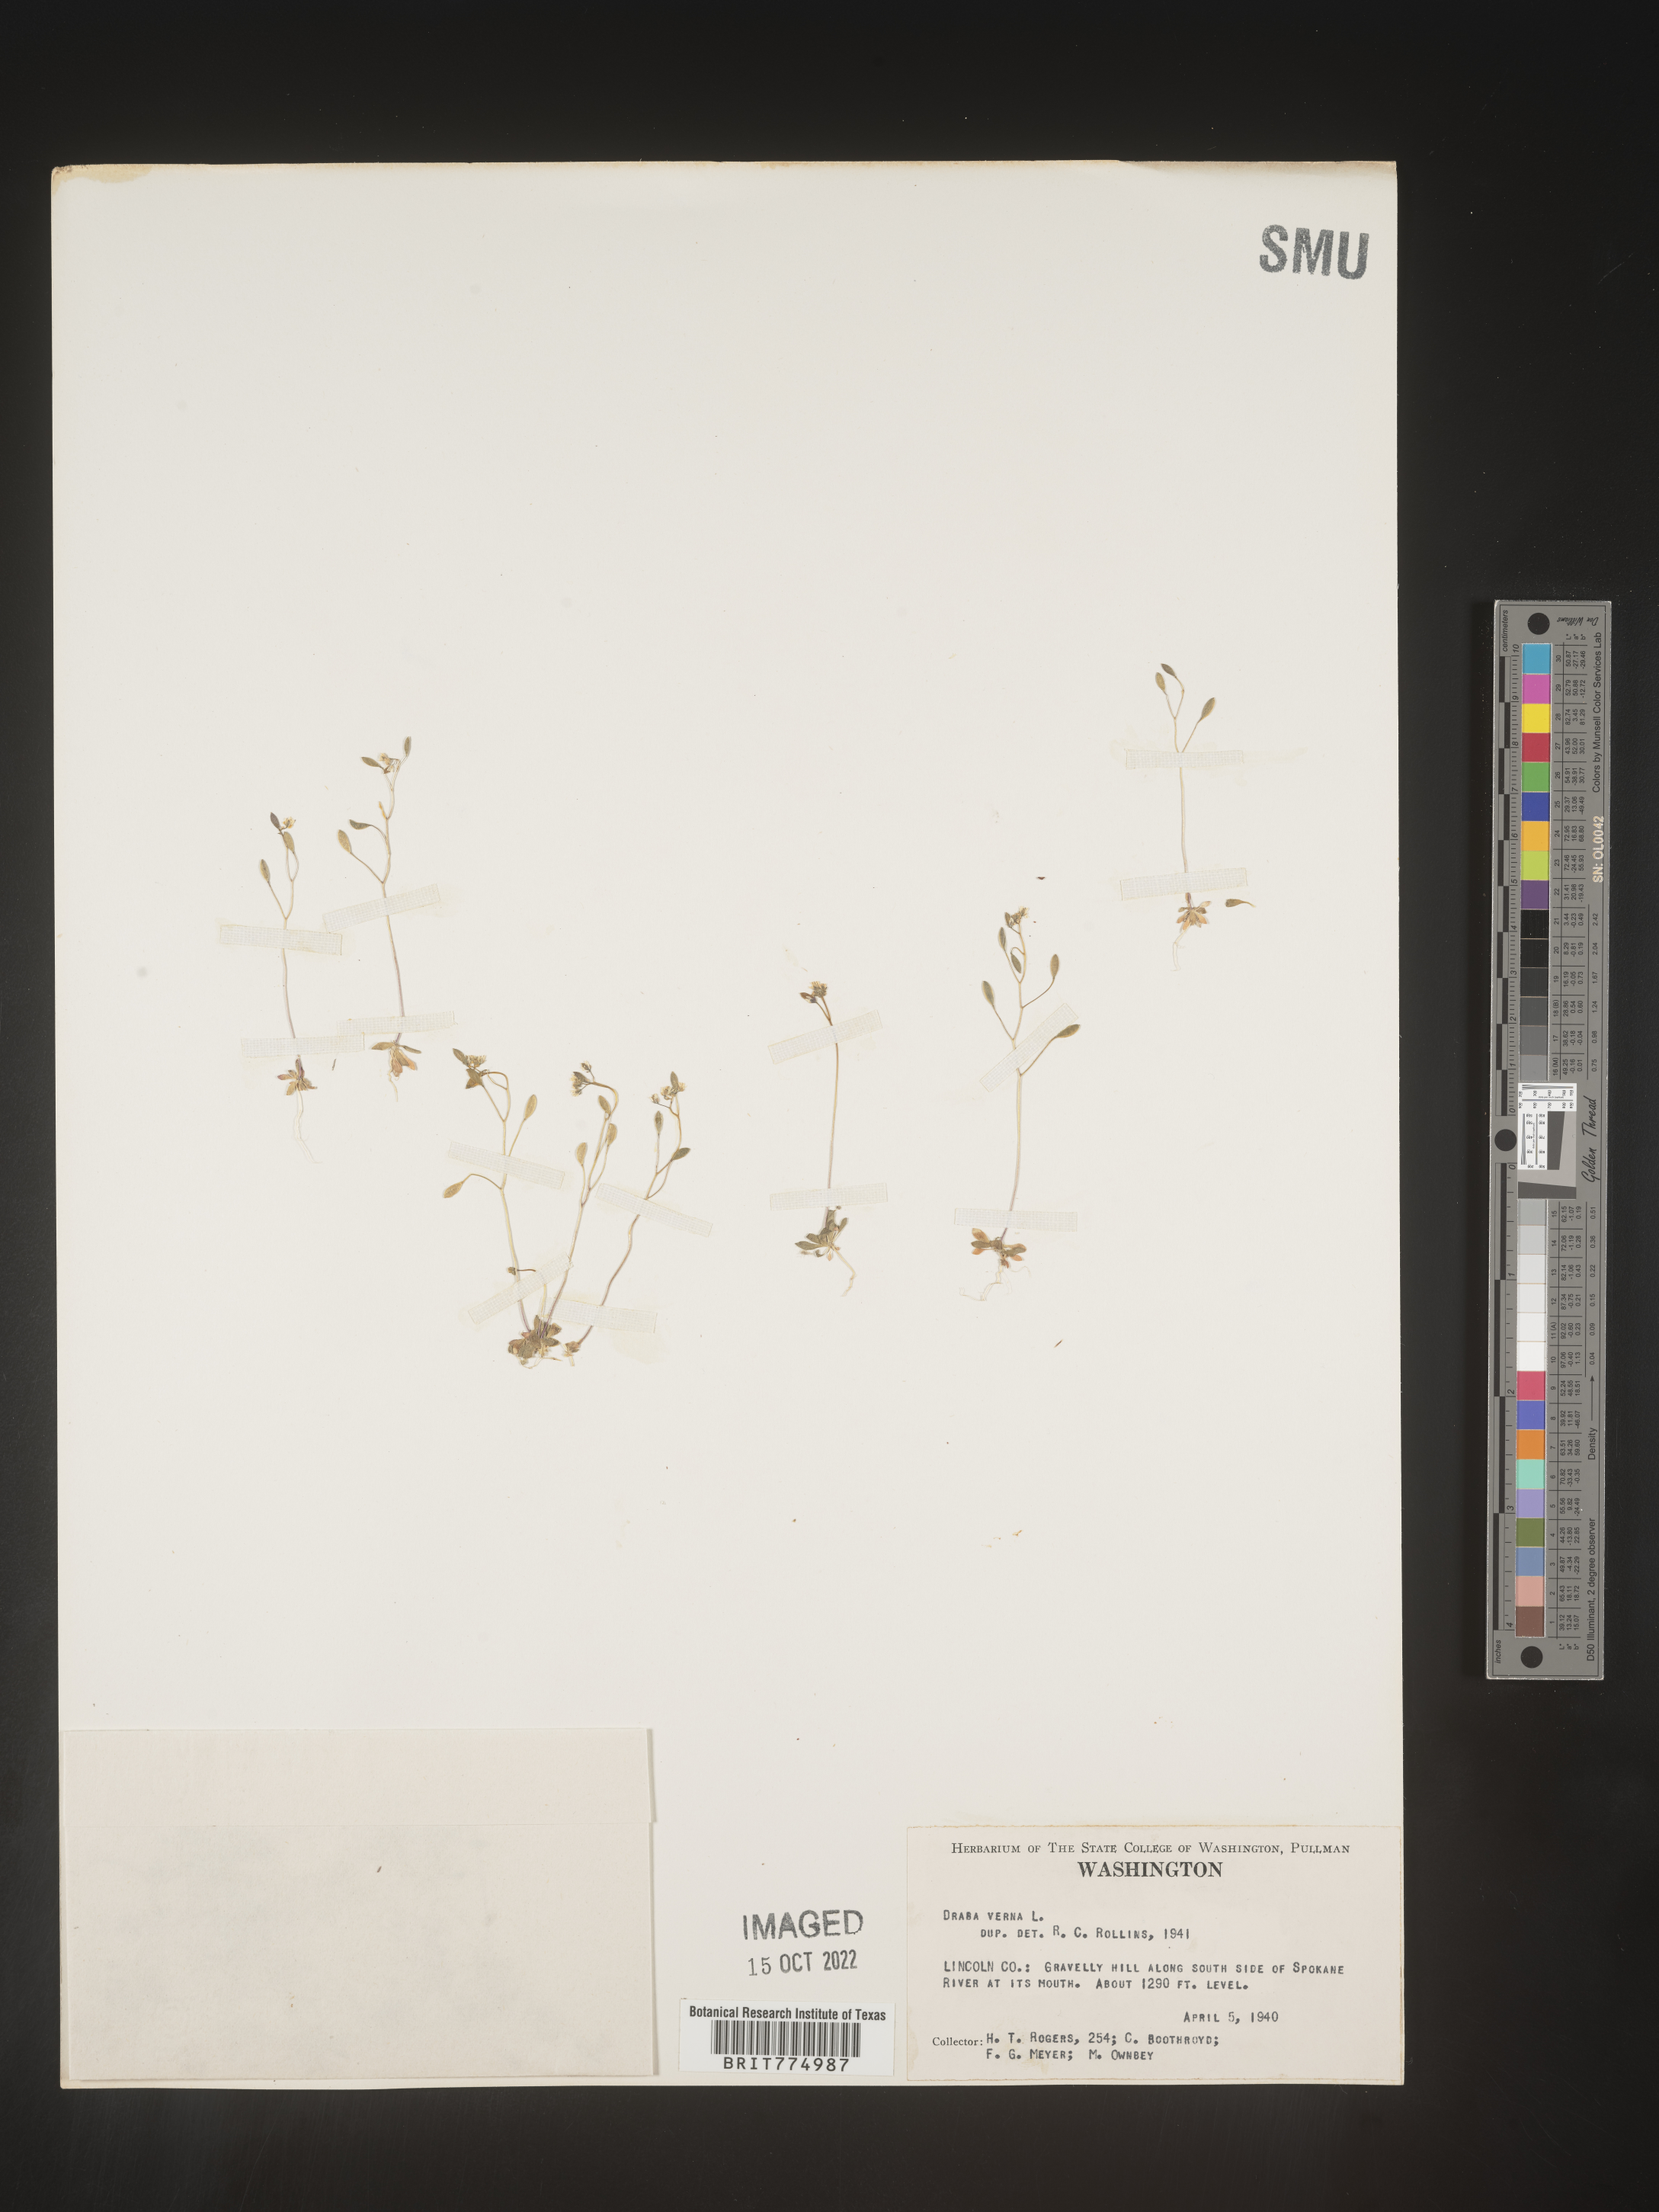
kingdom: Plantae
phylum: Tracheophyta
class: Magnoliopsida
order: Brassicales
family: Brassicaceae
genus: Draba
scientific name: Draba verna
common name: Spring draba
